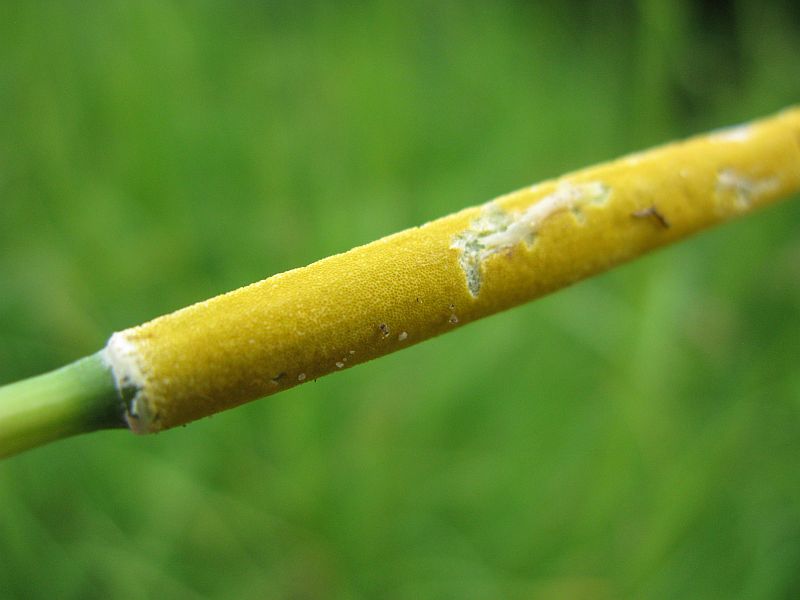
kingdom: Fungi
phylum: Ascomycota
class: Sordariomycetes
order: Hypocreales
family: Clavicipitaceae
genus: Epichloe
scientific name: Epichloe typhina
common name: almindelig kernerør
